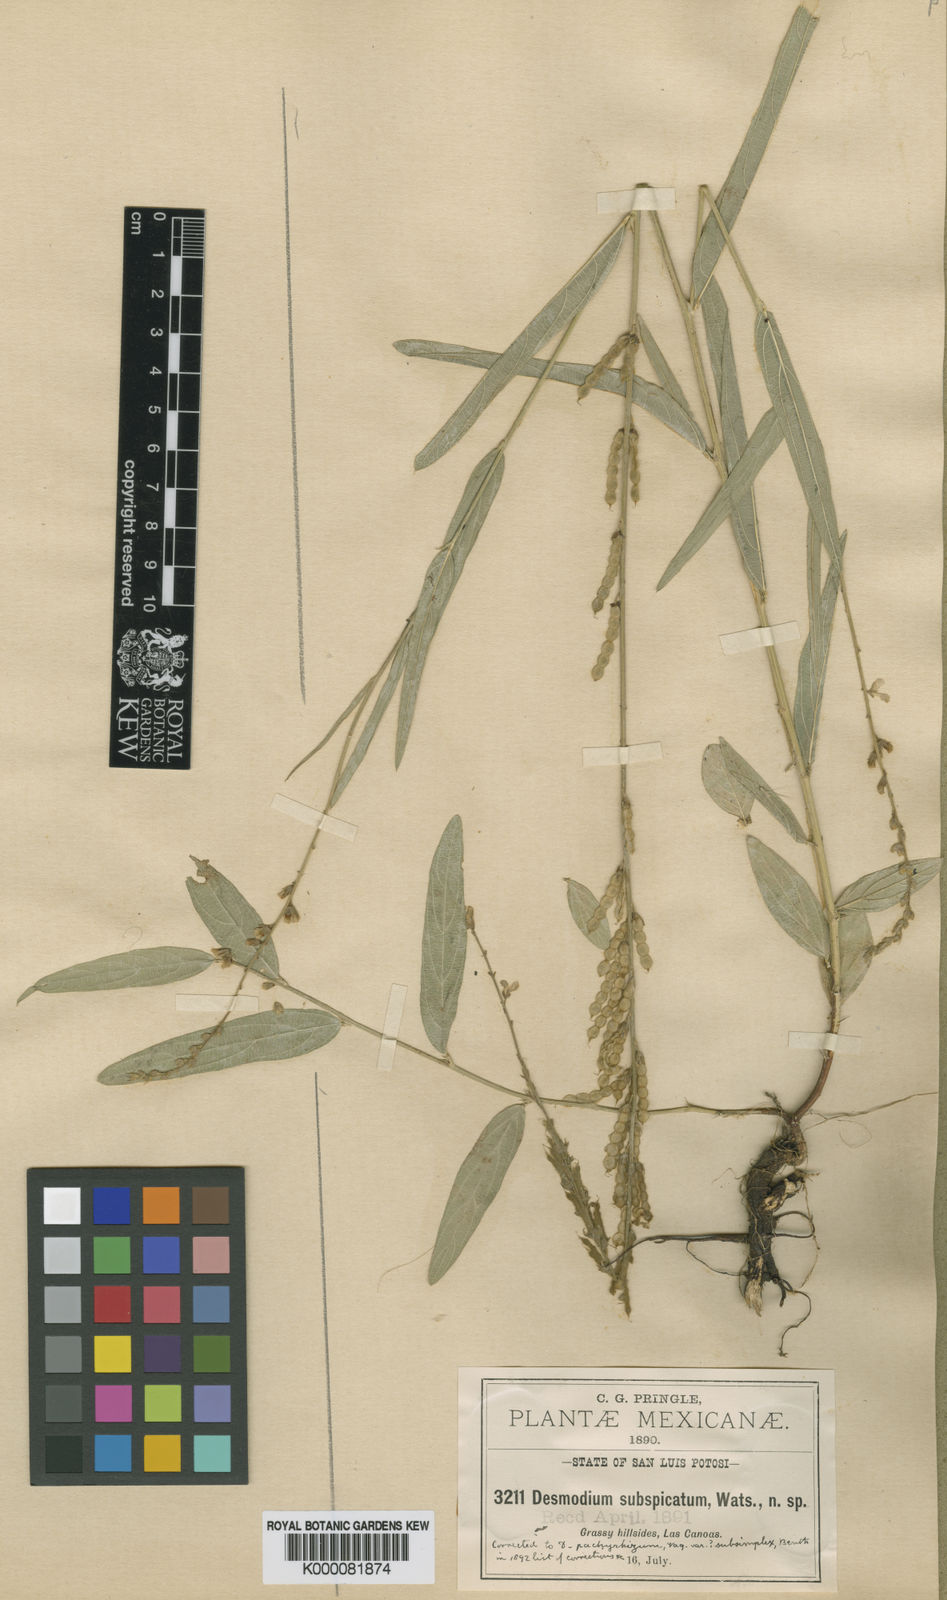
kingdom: Plantae
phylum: Tracheophyta
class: Magnoliopsida
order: Fabales
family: Fabaceae
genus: Desmodium
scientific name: Desmodium angustifolium
